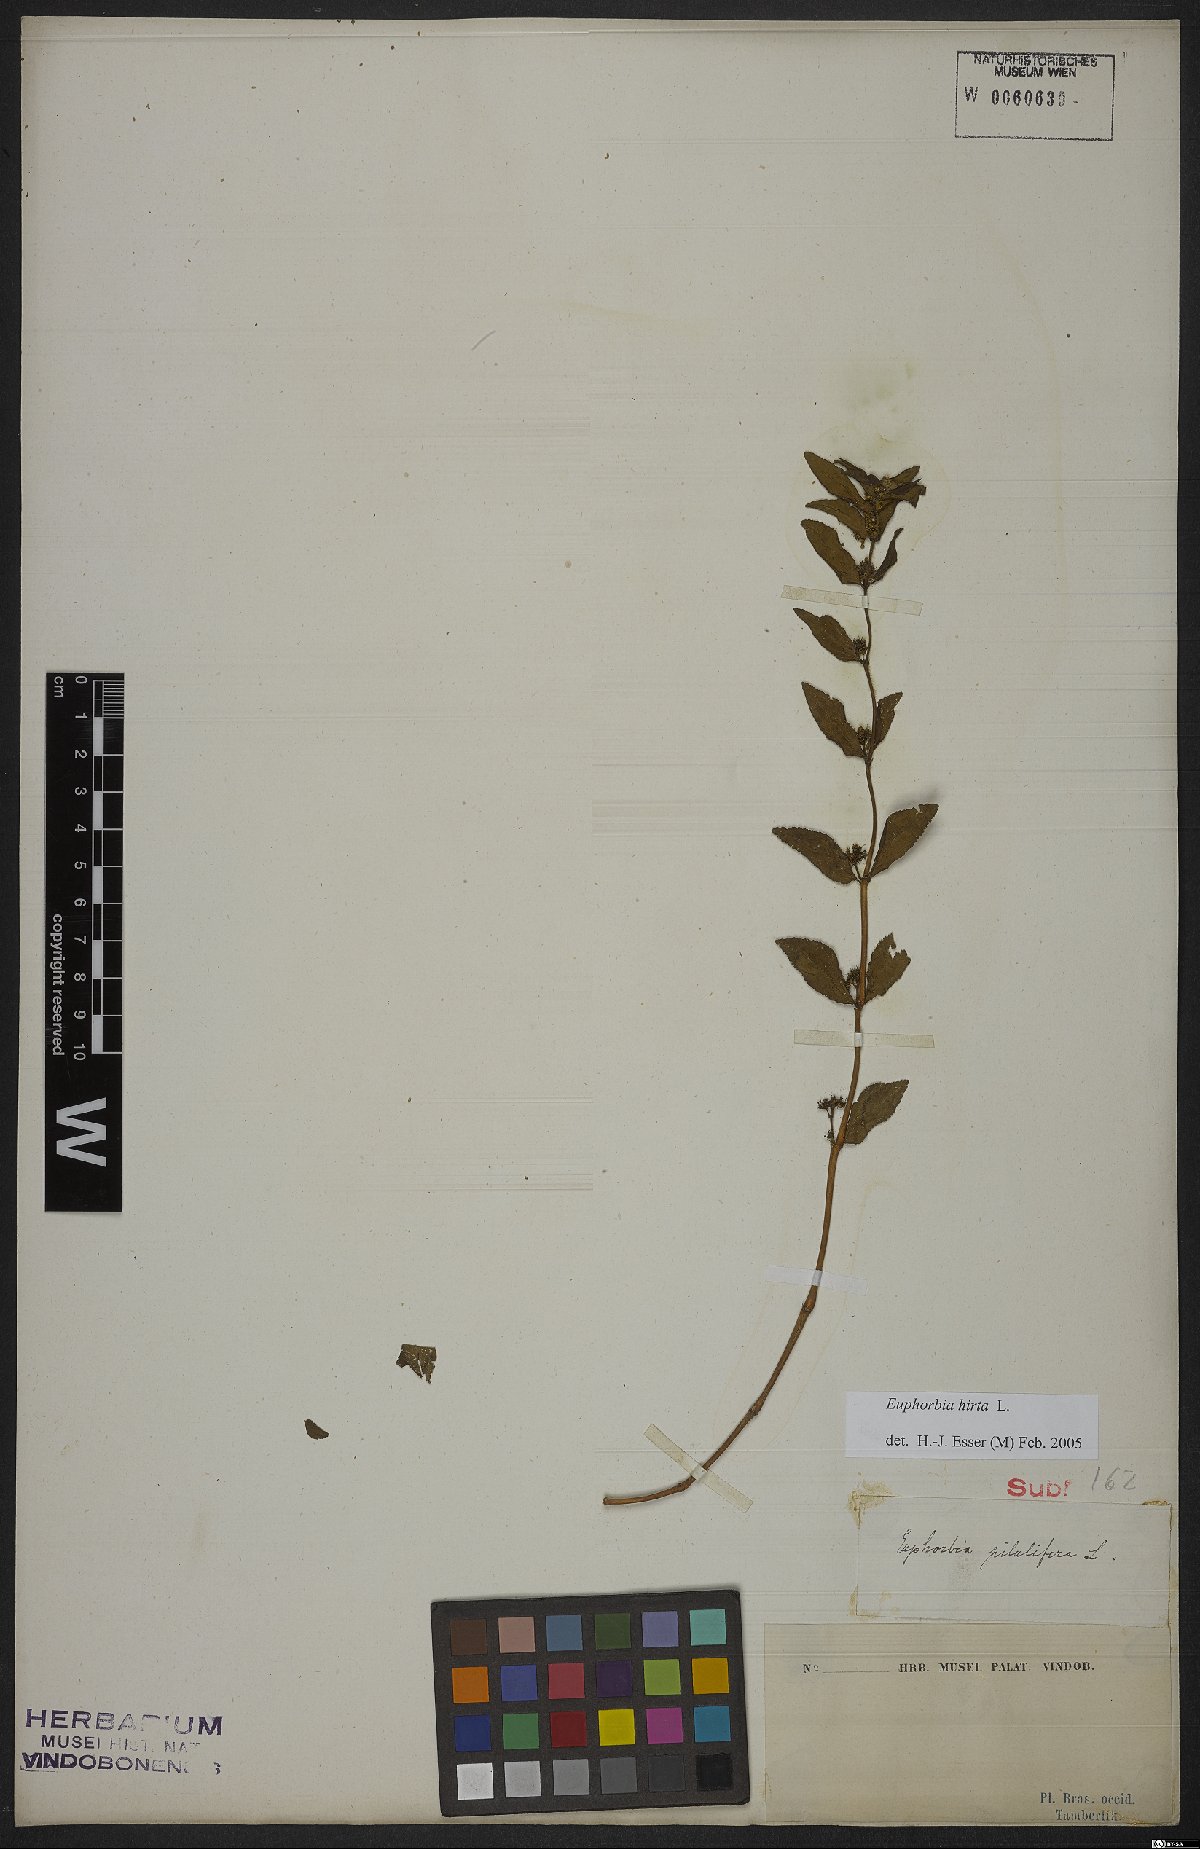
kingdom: Plantae
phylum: Tracheophyta
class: Magnoliopsida
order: Malpighiales
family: Euphorbiaceae
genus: Euphorbia
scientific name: Euphorbia hirta
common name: Pillpod sandmat
